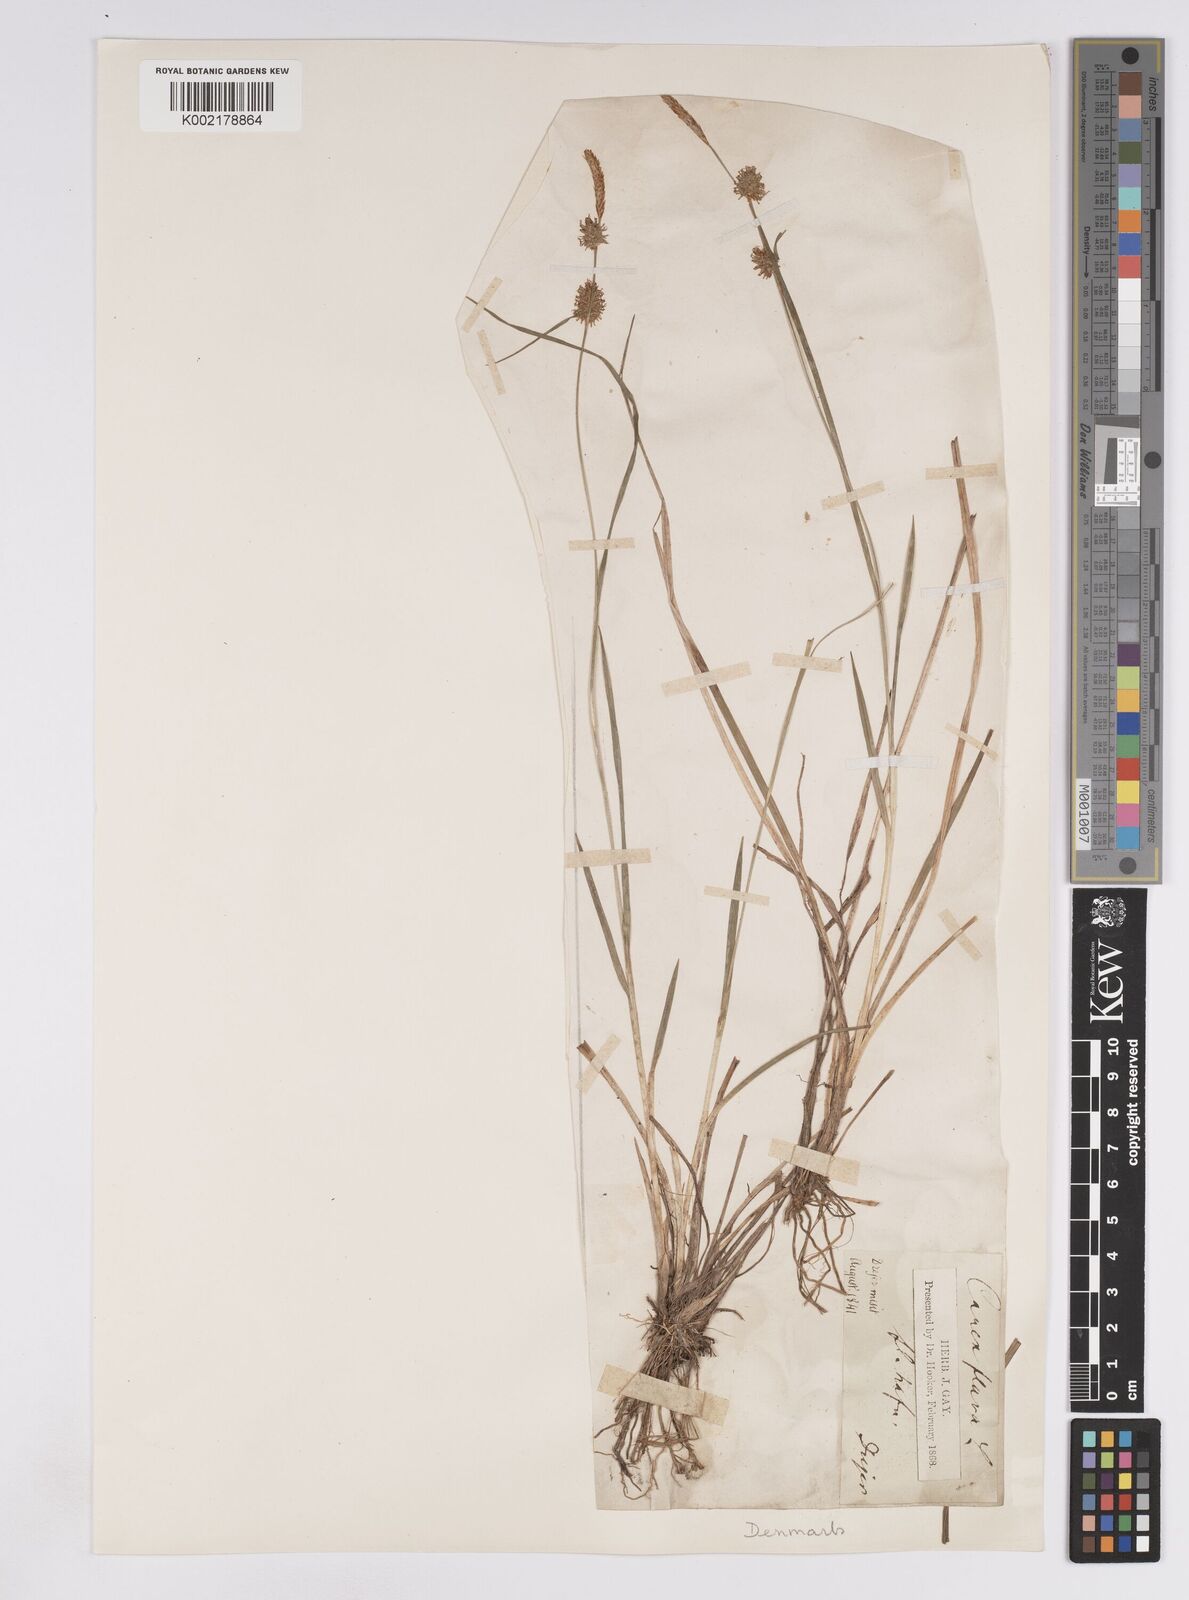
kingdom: Plantae
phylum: Tracheophyta
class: Liliopsida
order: Poales
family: Cyperaceae
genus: Carex
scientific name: Carex lepidocarpa
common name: Long-stalked yellow-sedge
